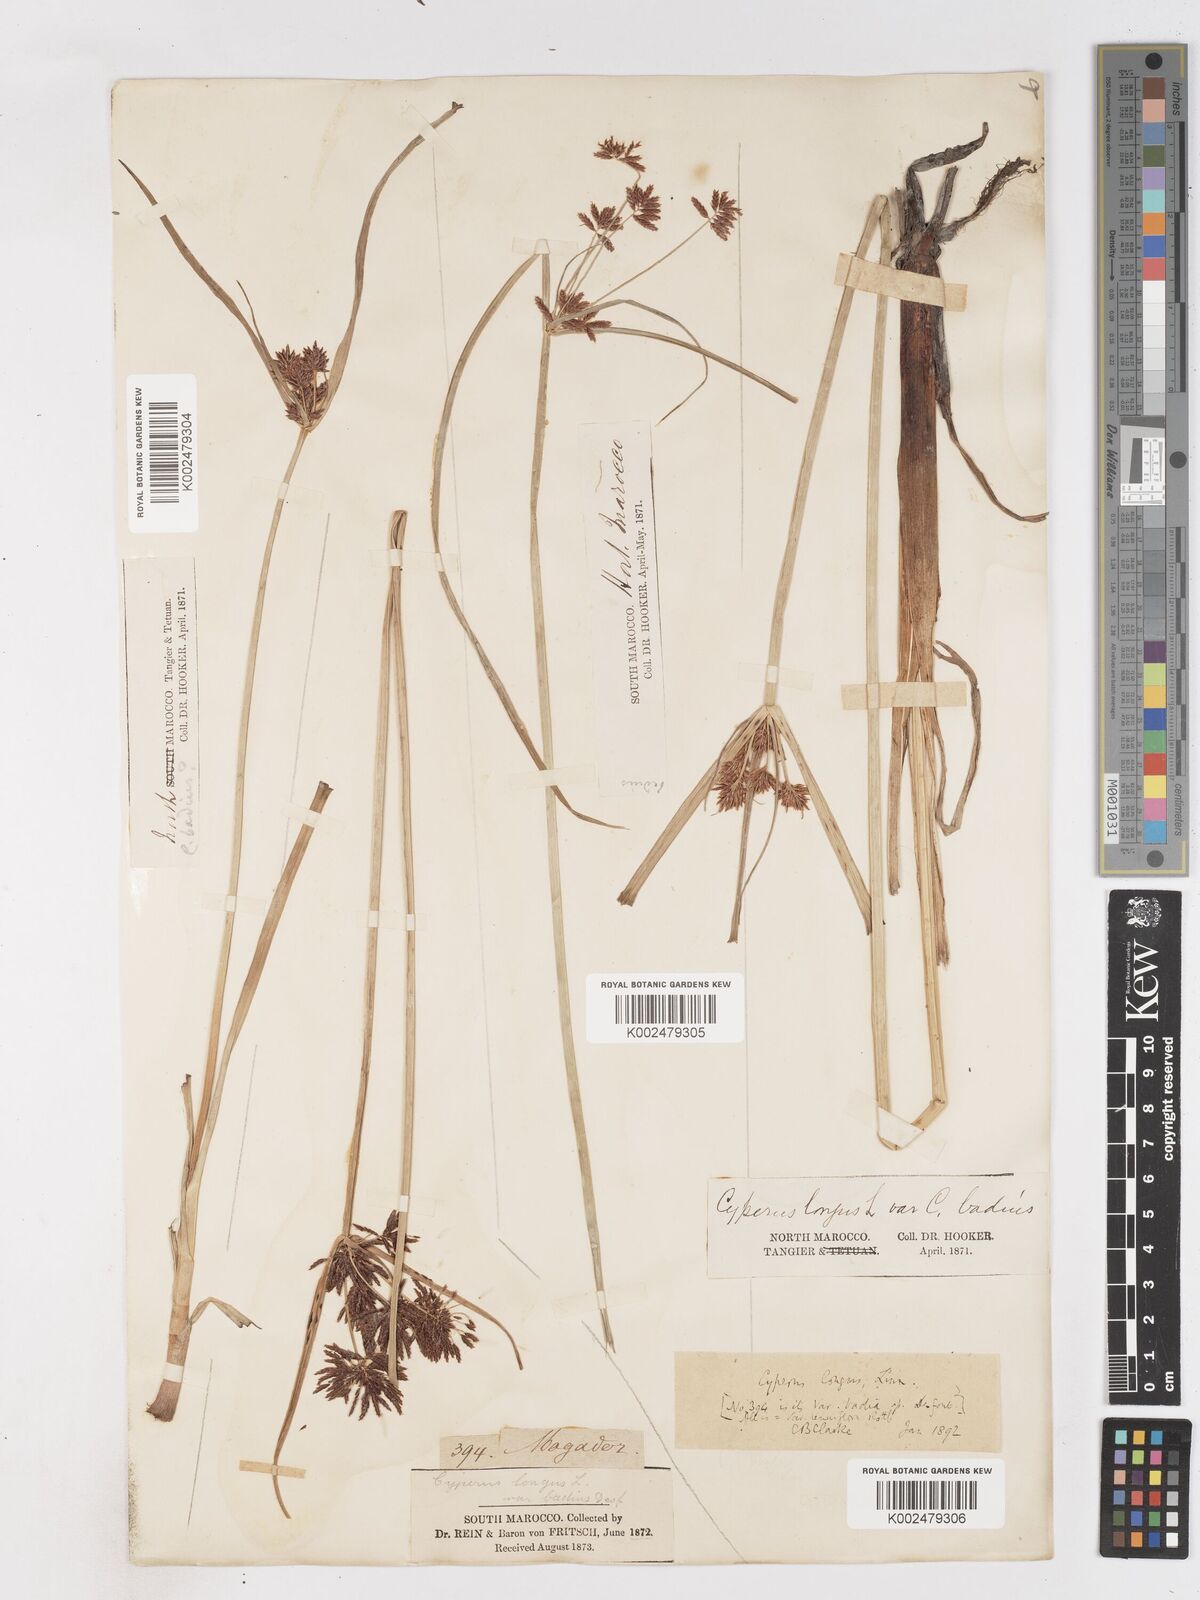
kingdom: Plantae
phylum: Tracheophyta
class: Liliopsida
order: Poales
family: Cyperaceae
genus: Cyperus
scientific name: Cyperus longus
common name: Galingale
